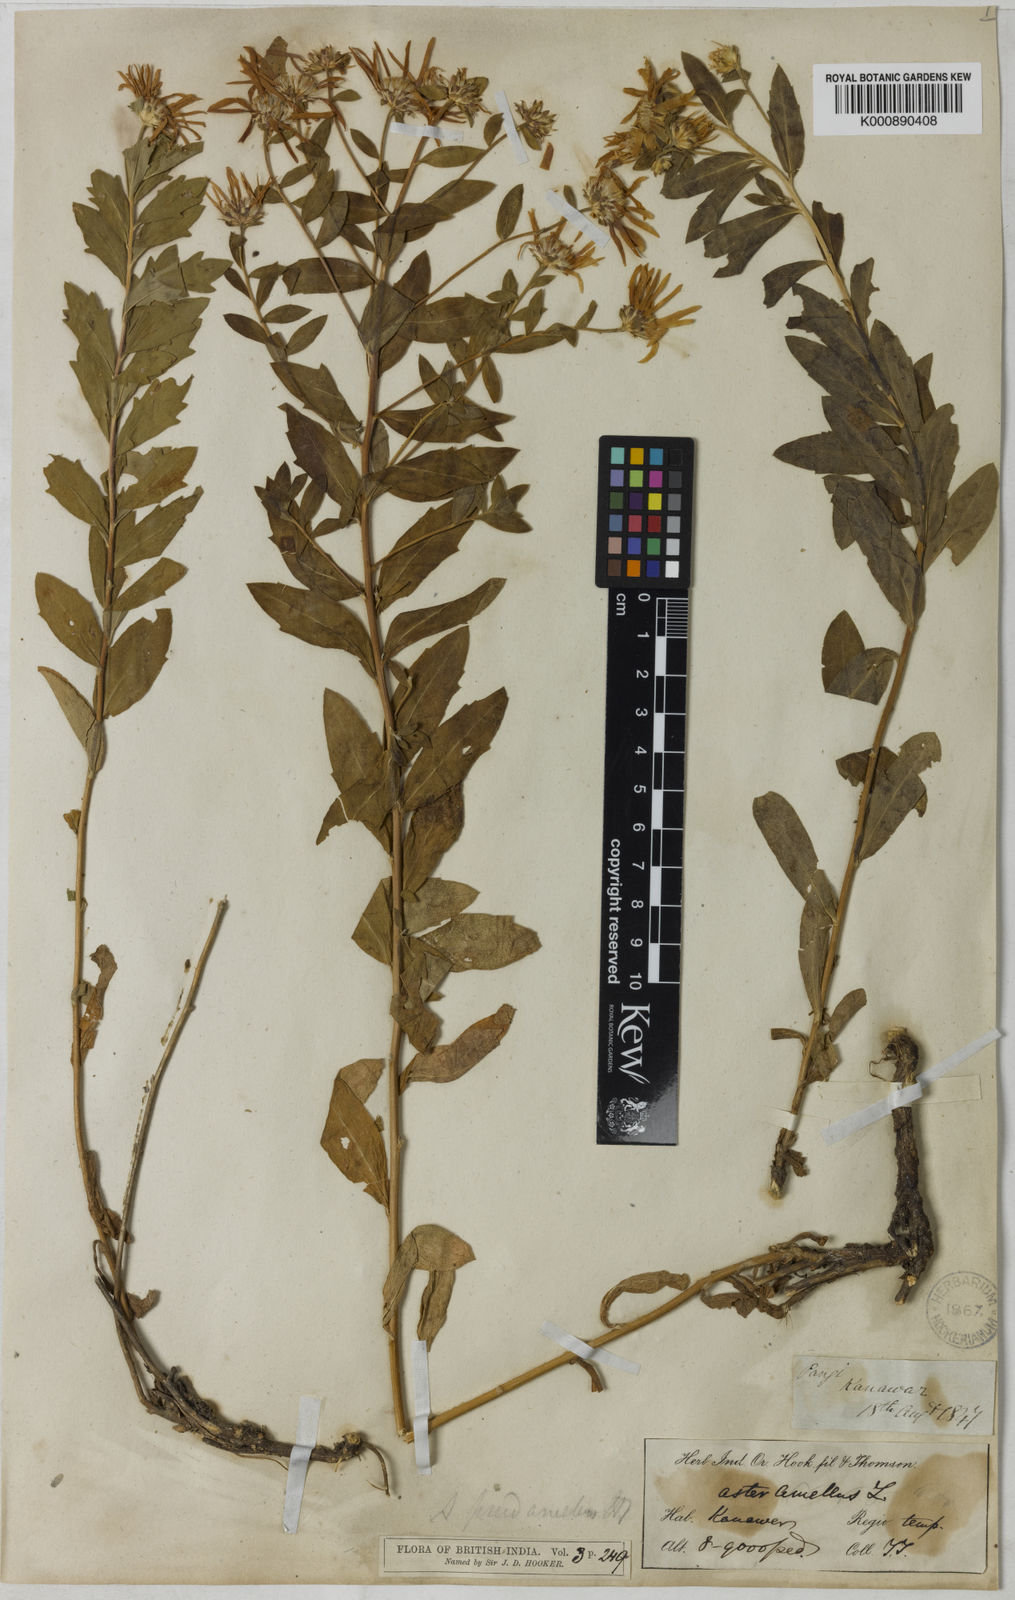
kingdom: Plantae
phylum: Tracheophyta
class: Magnoliopsida
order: Asterales
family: Asteraceae
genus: Aster
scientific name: Aster indamellus
